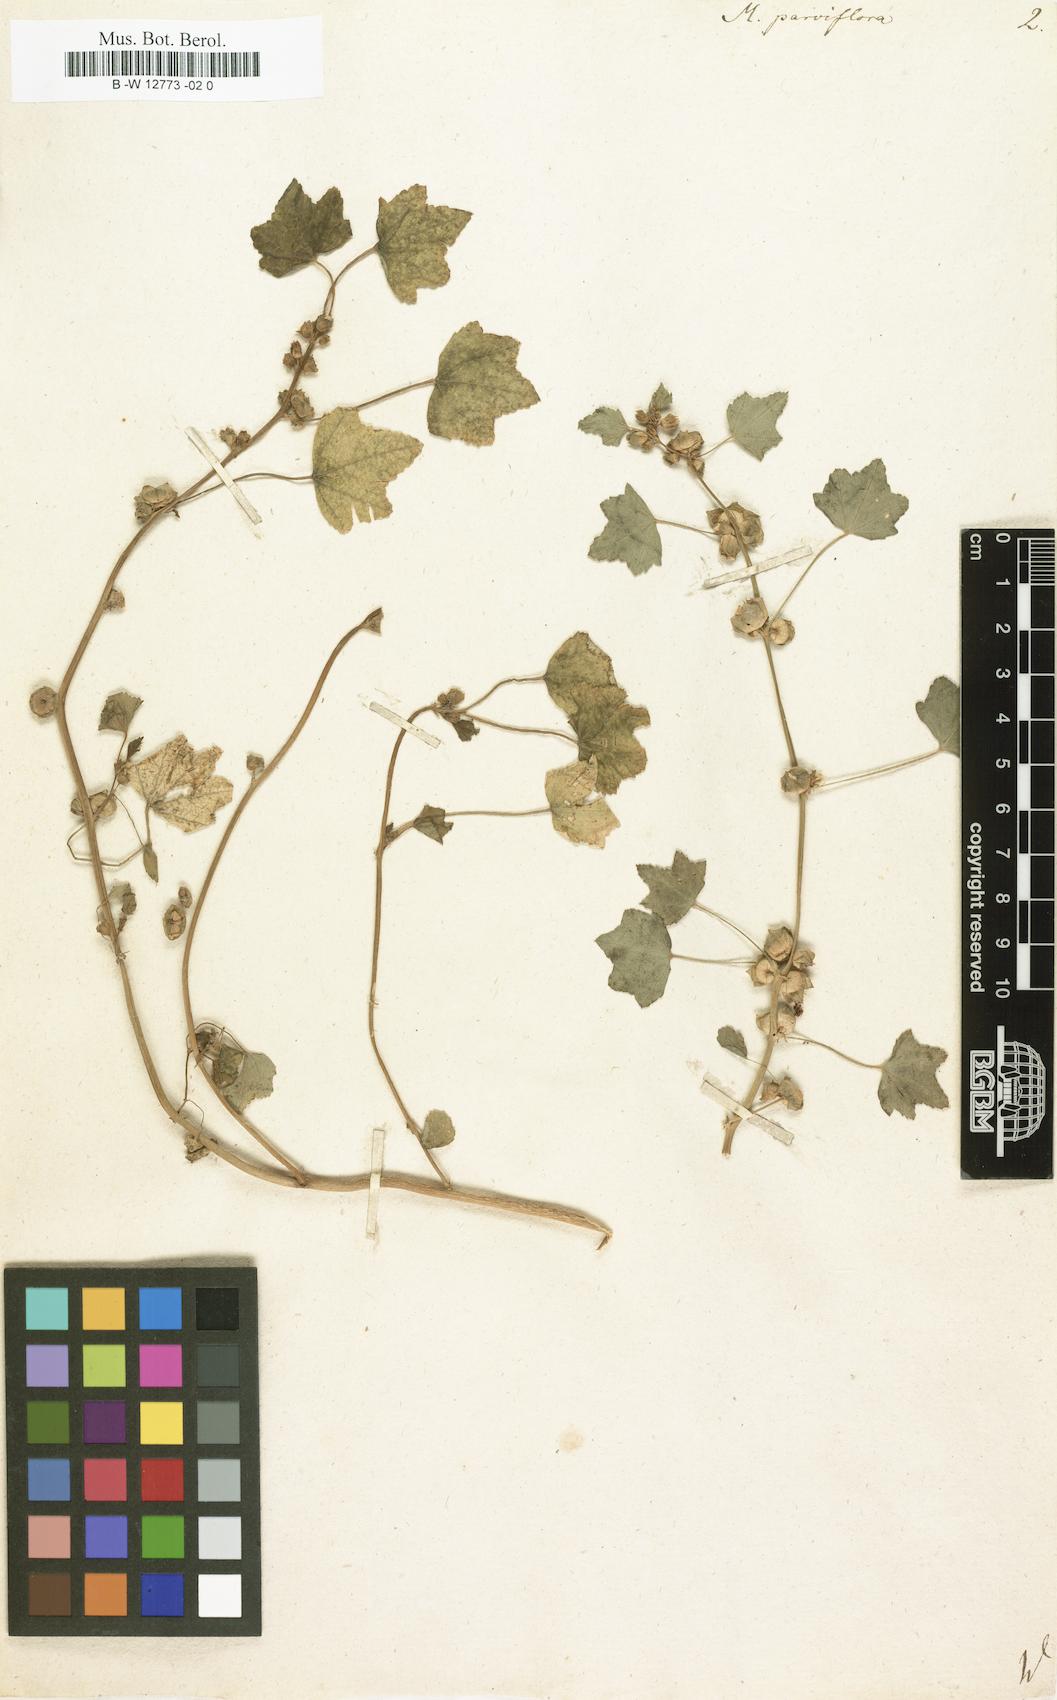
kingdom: Plantae
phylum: Tracheophyta
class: Magnoliopsida
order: Malvales
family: Malvaceae
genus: Malva
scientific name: Malva parviflora
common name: Least mallow
